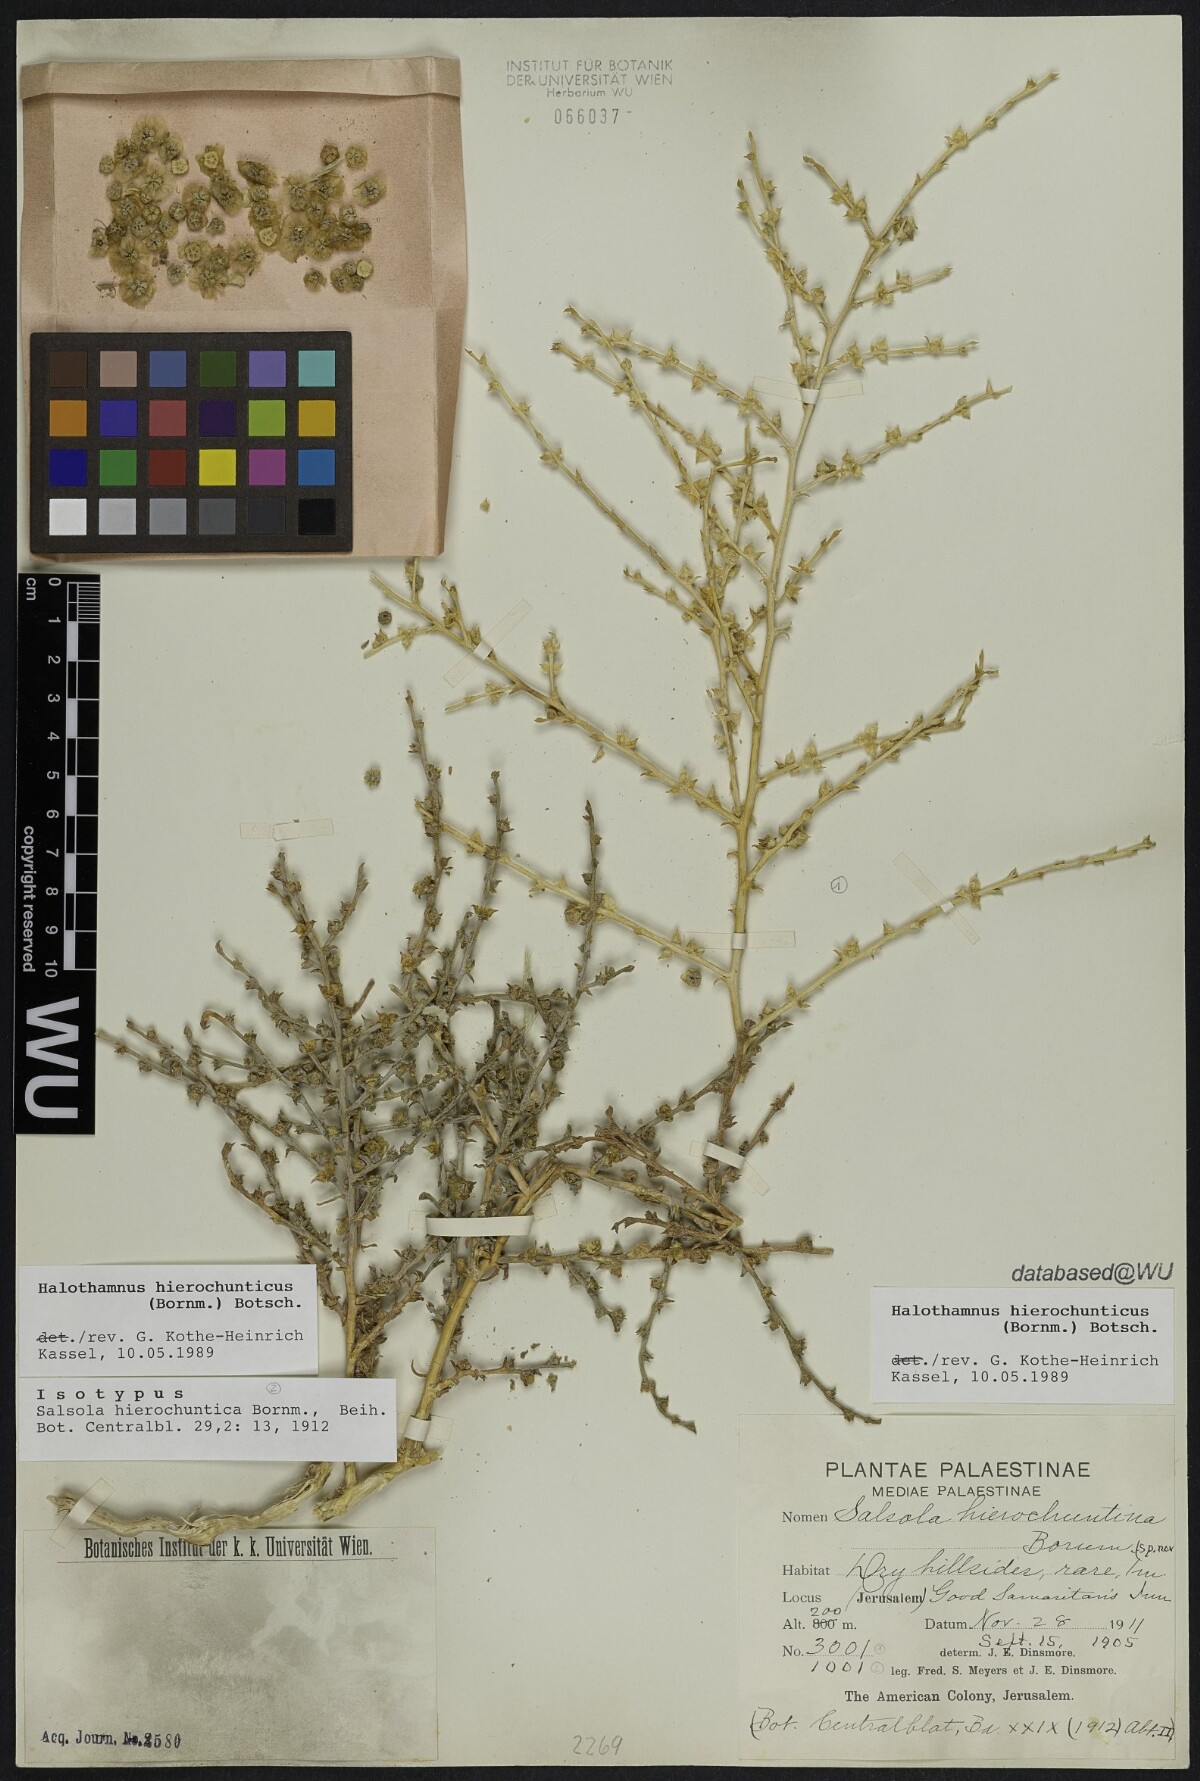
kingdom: Plantae
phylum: Tracheophyta
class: Magnoliopsida
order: Caryophyllales
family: Amaranthaceae
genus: Halothamnus
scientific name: Halothamnus hierochunticus
